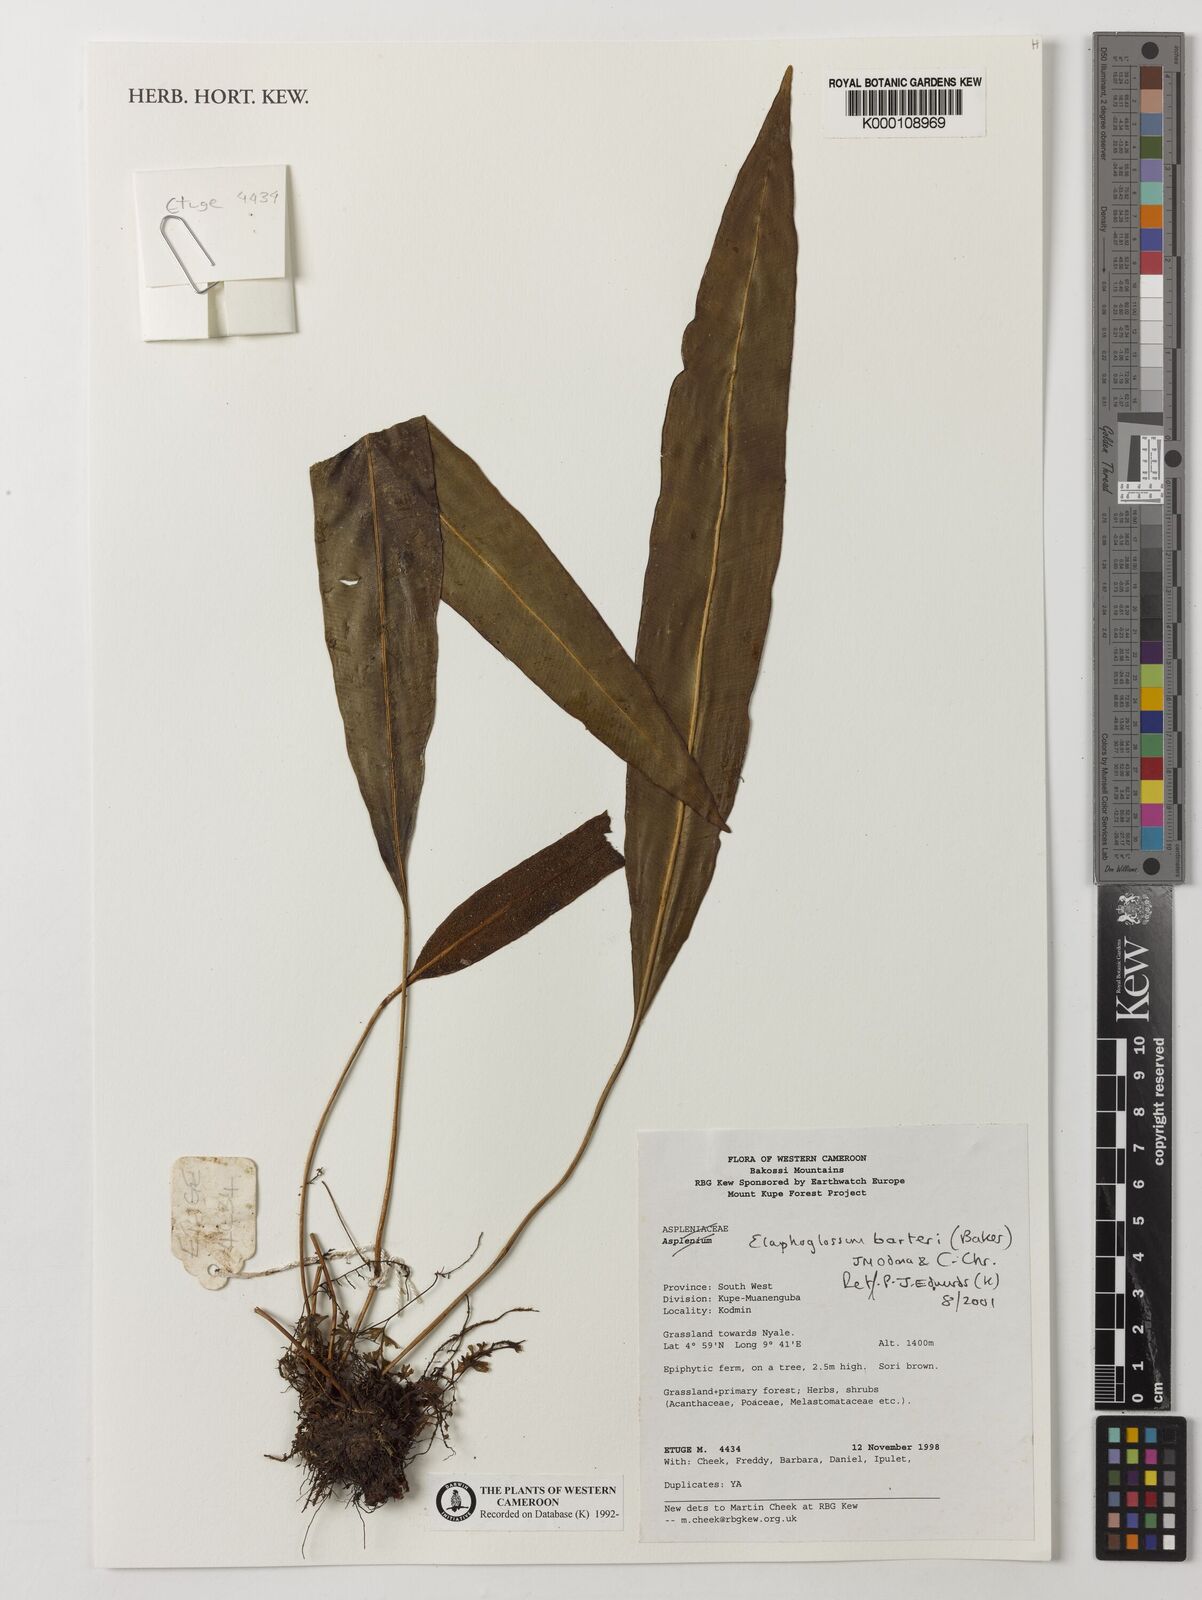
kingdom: Plantae
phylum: Tracheophyta
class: Polypodiopsida
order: Polypodiales
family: Dryopteridaceae
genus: Elaphoglossum
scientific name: Elaphoglossum barteri
